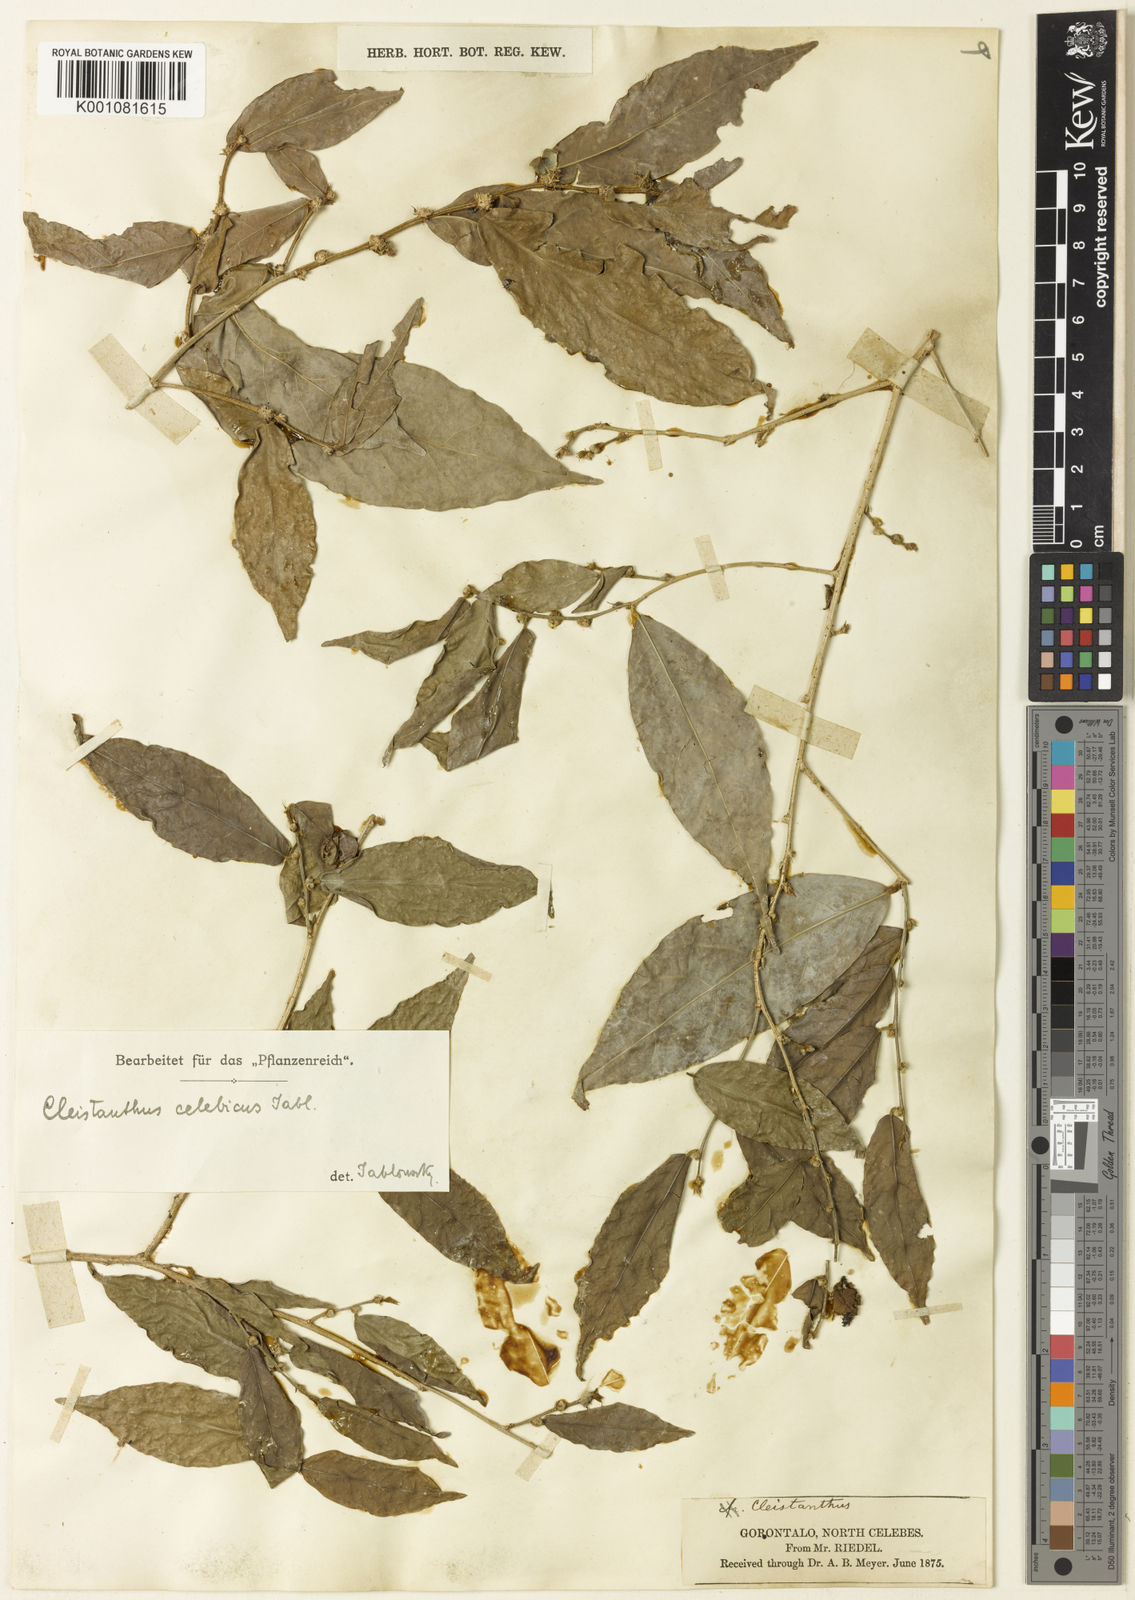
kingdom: Plantae
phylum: Tracheophyta
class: Magnoliopsida
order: Malpighiales
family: Phyllanthaceae
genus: Cleistanthus
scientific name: Cleistanthus celebicus
